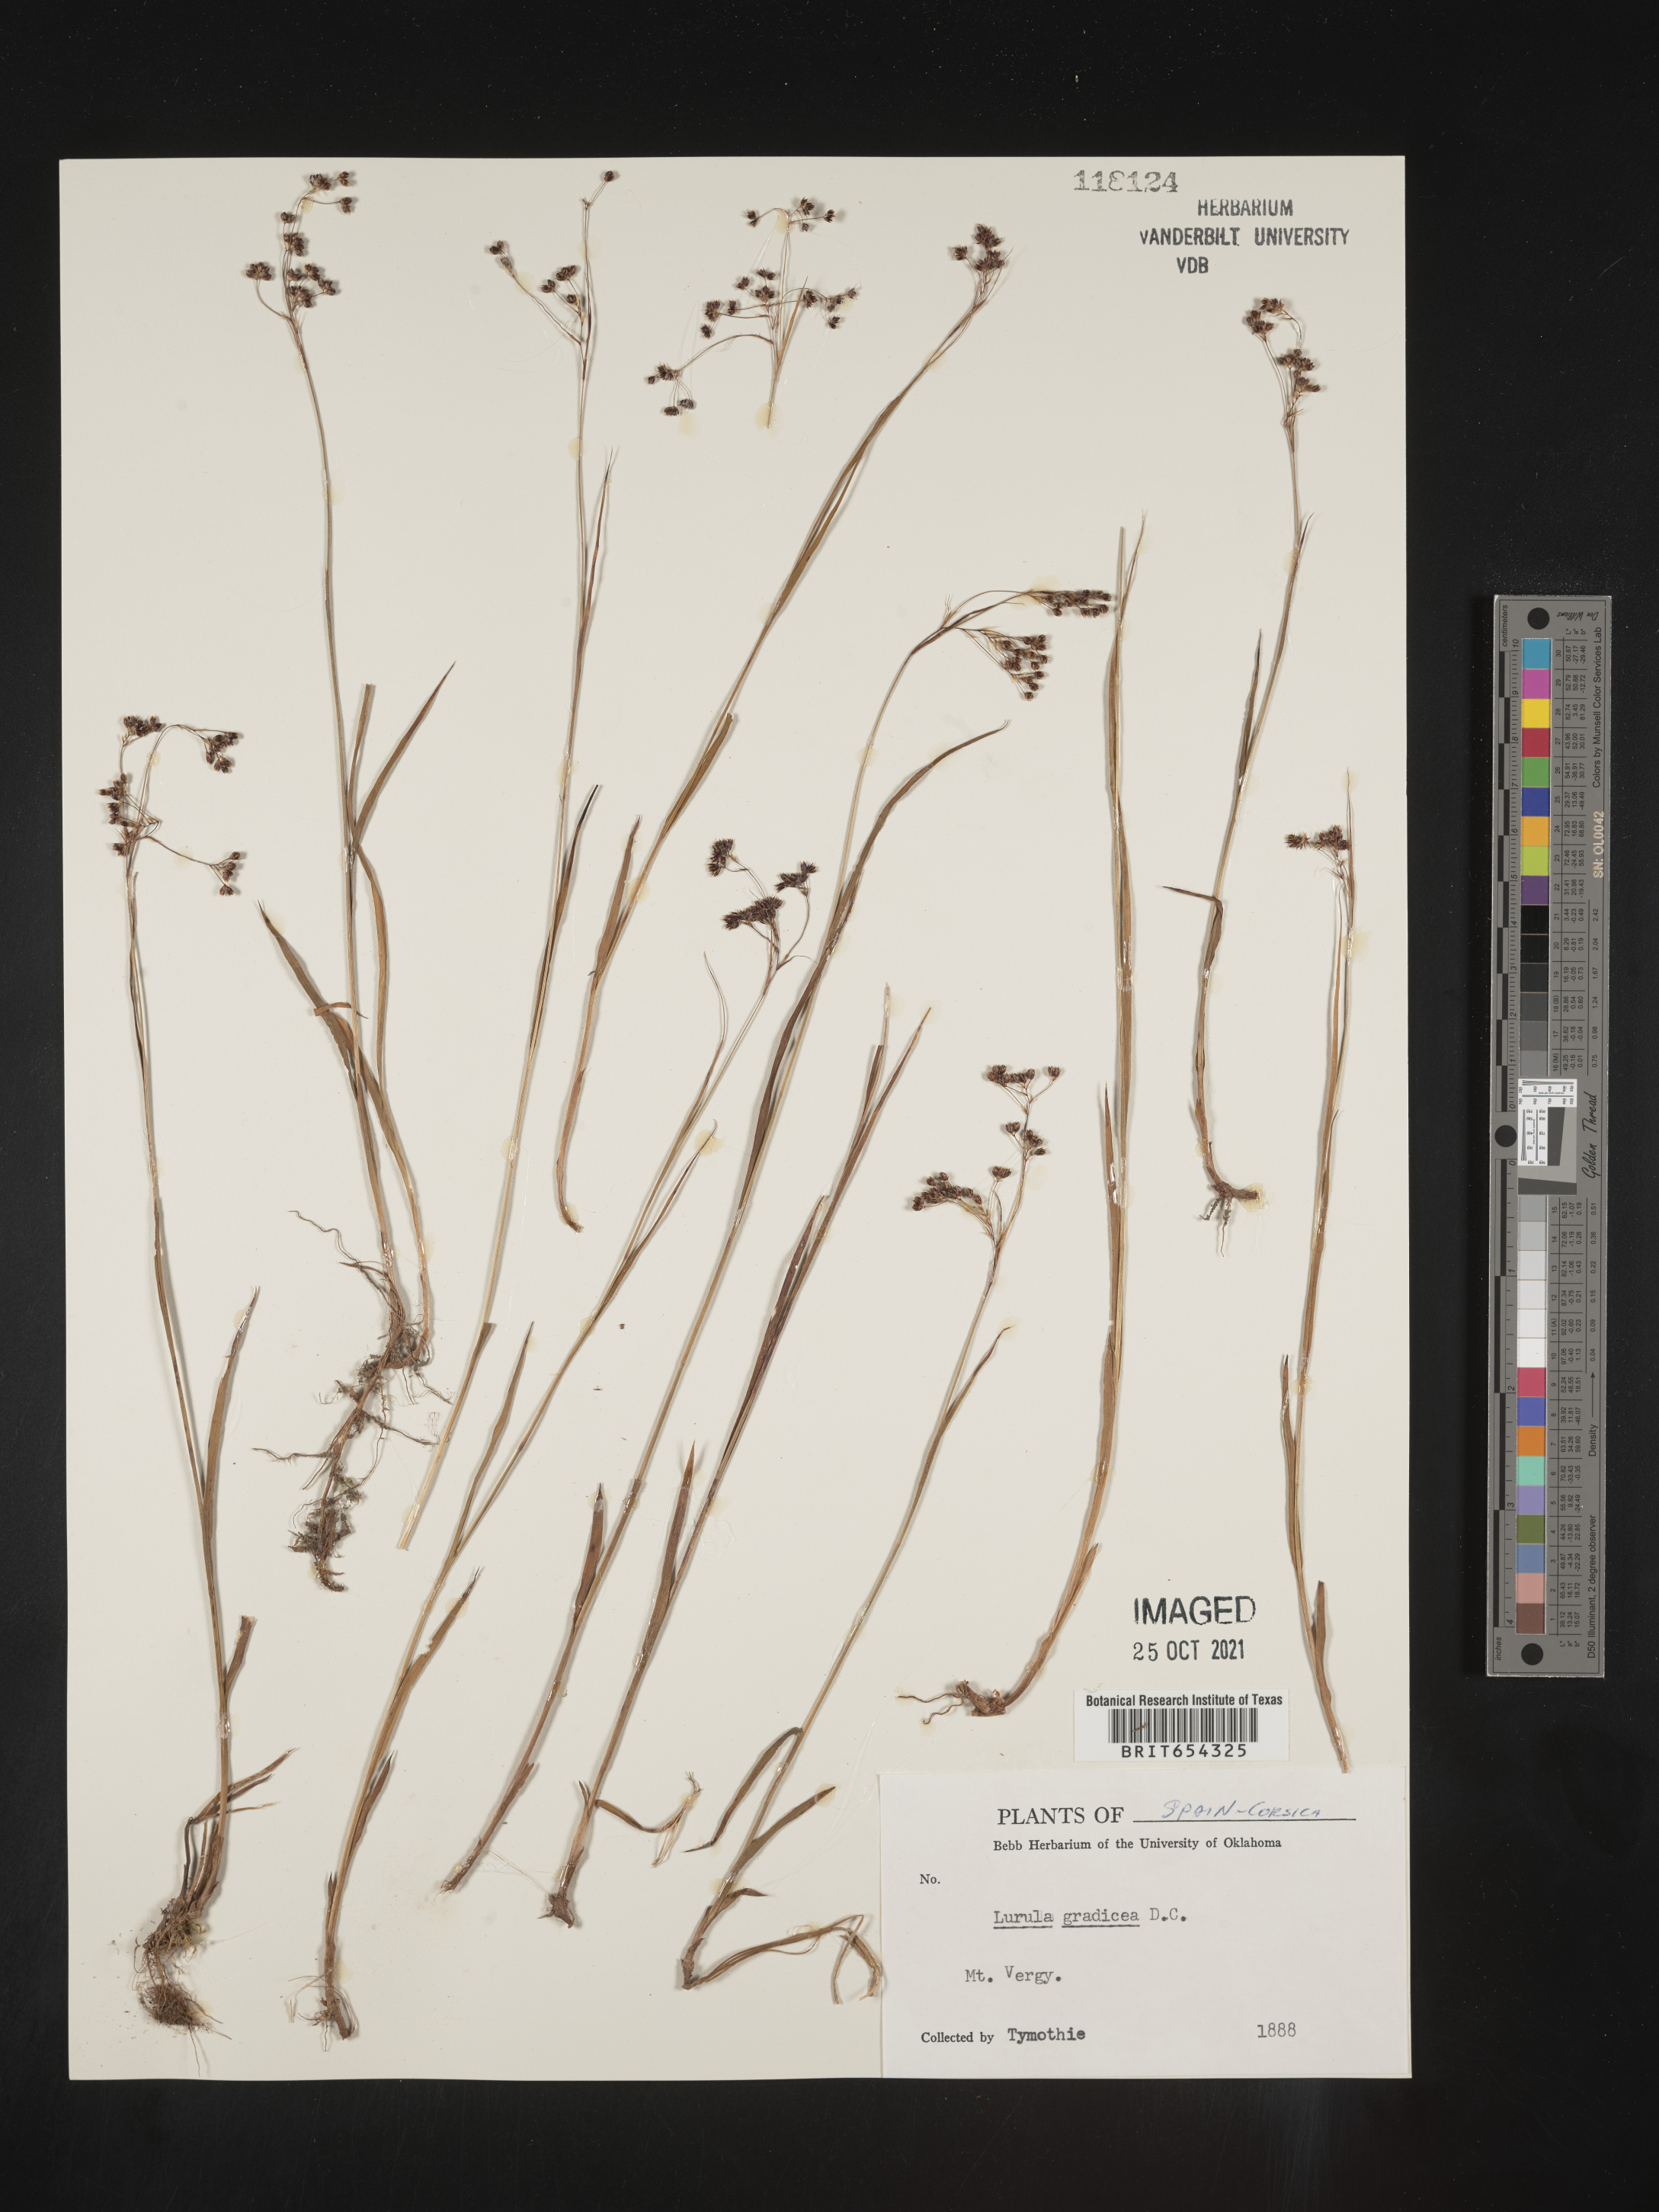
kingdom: Plantae
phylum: Tracheophyta
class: Liliopsida
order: Poales
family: Juncaceae
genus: Luzula
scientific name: Luzula
